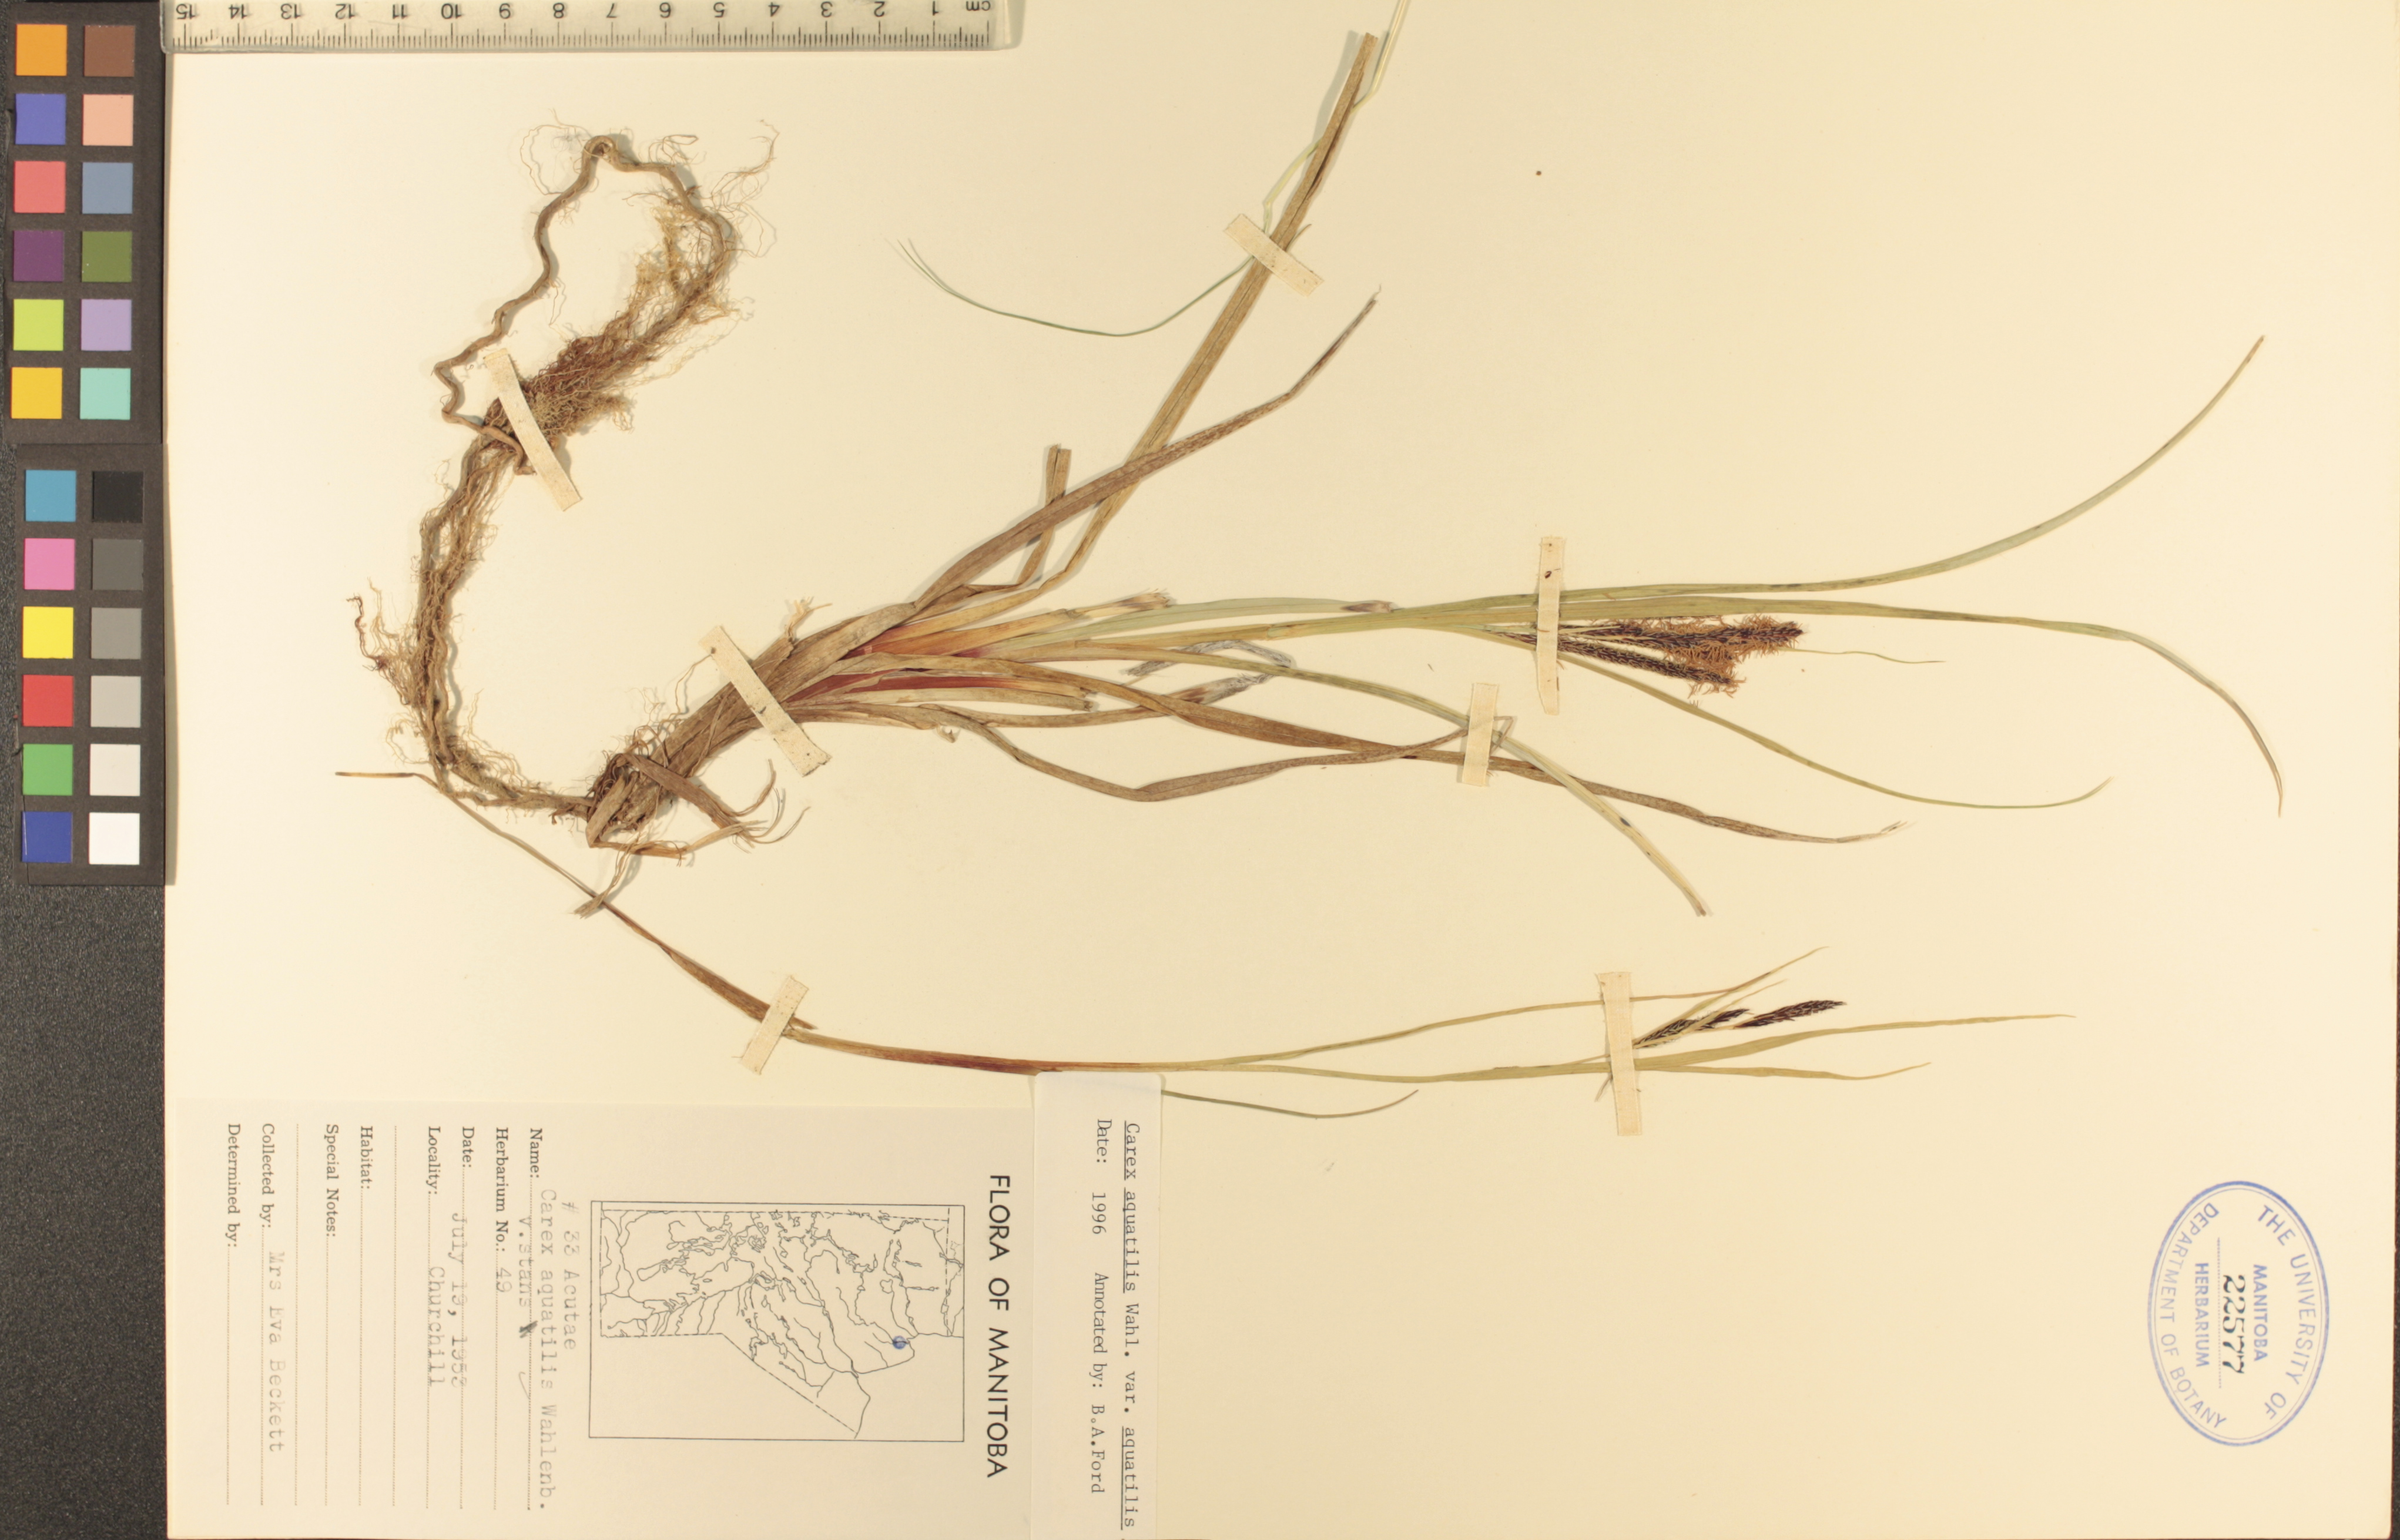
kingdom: Plantae
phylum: Tracheophyta
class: Liliopsida
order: Poales
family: Cyperaceae
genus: Carex
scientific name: Carex aquatilis
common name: Water sedge
